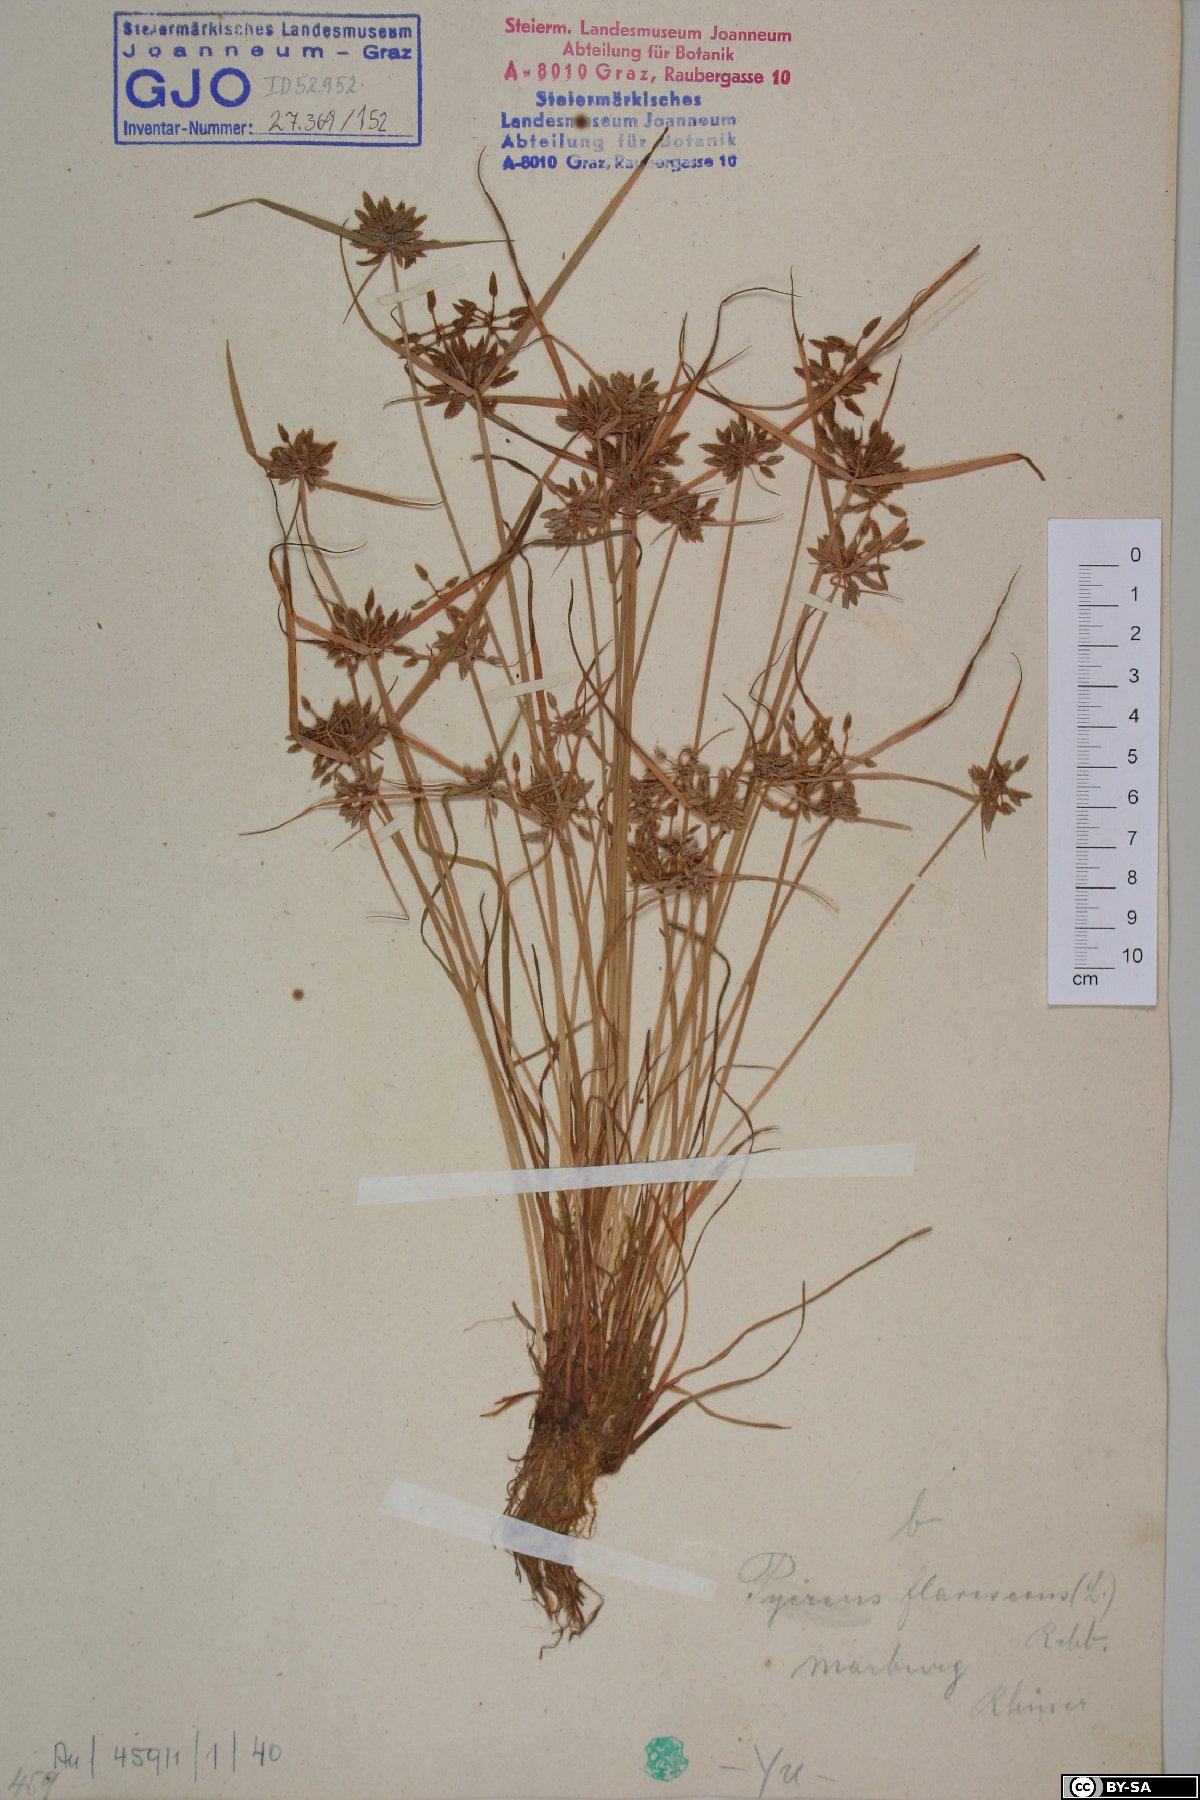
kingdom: Plantae
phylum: Tracheophyta
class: Liliopsida
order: Poales
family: Cyperaceae
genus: Cyperus
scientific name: Cyperus flavescens
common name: Yellow galingale
